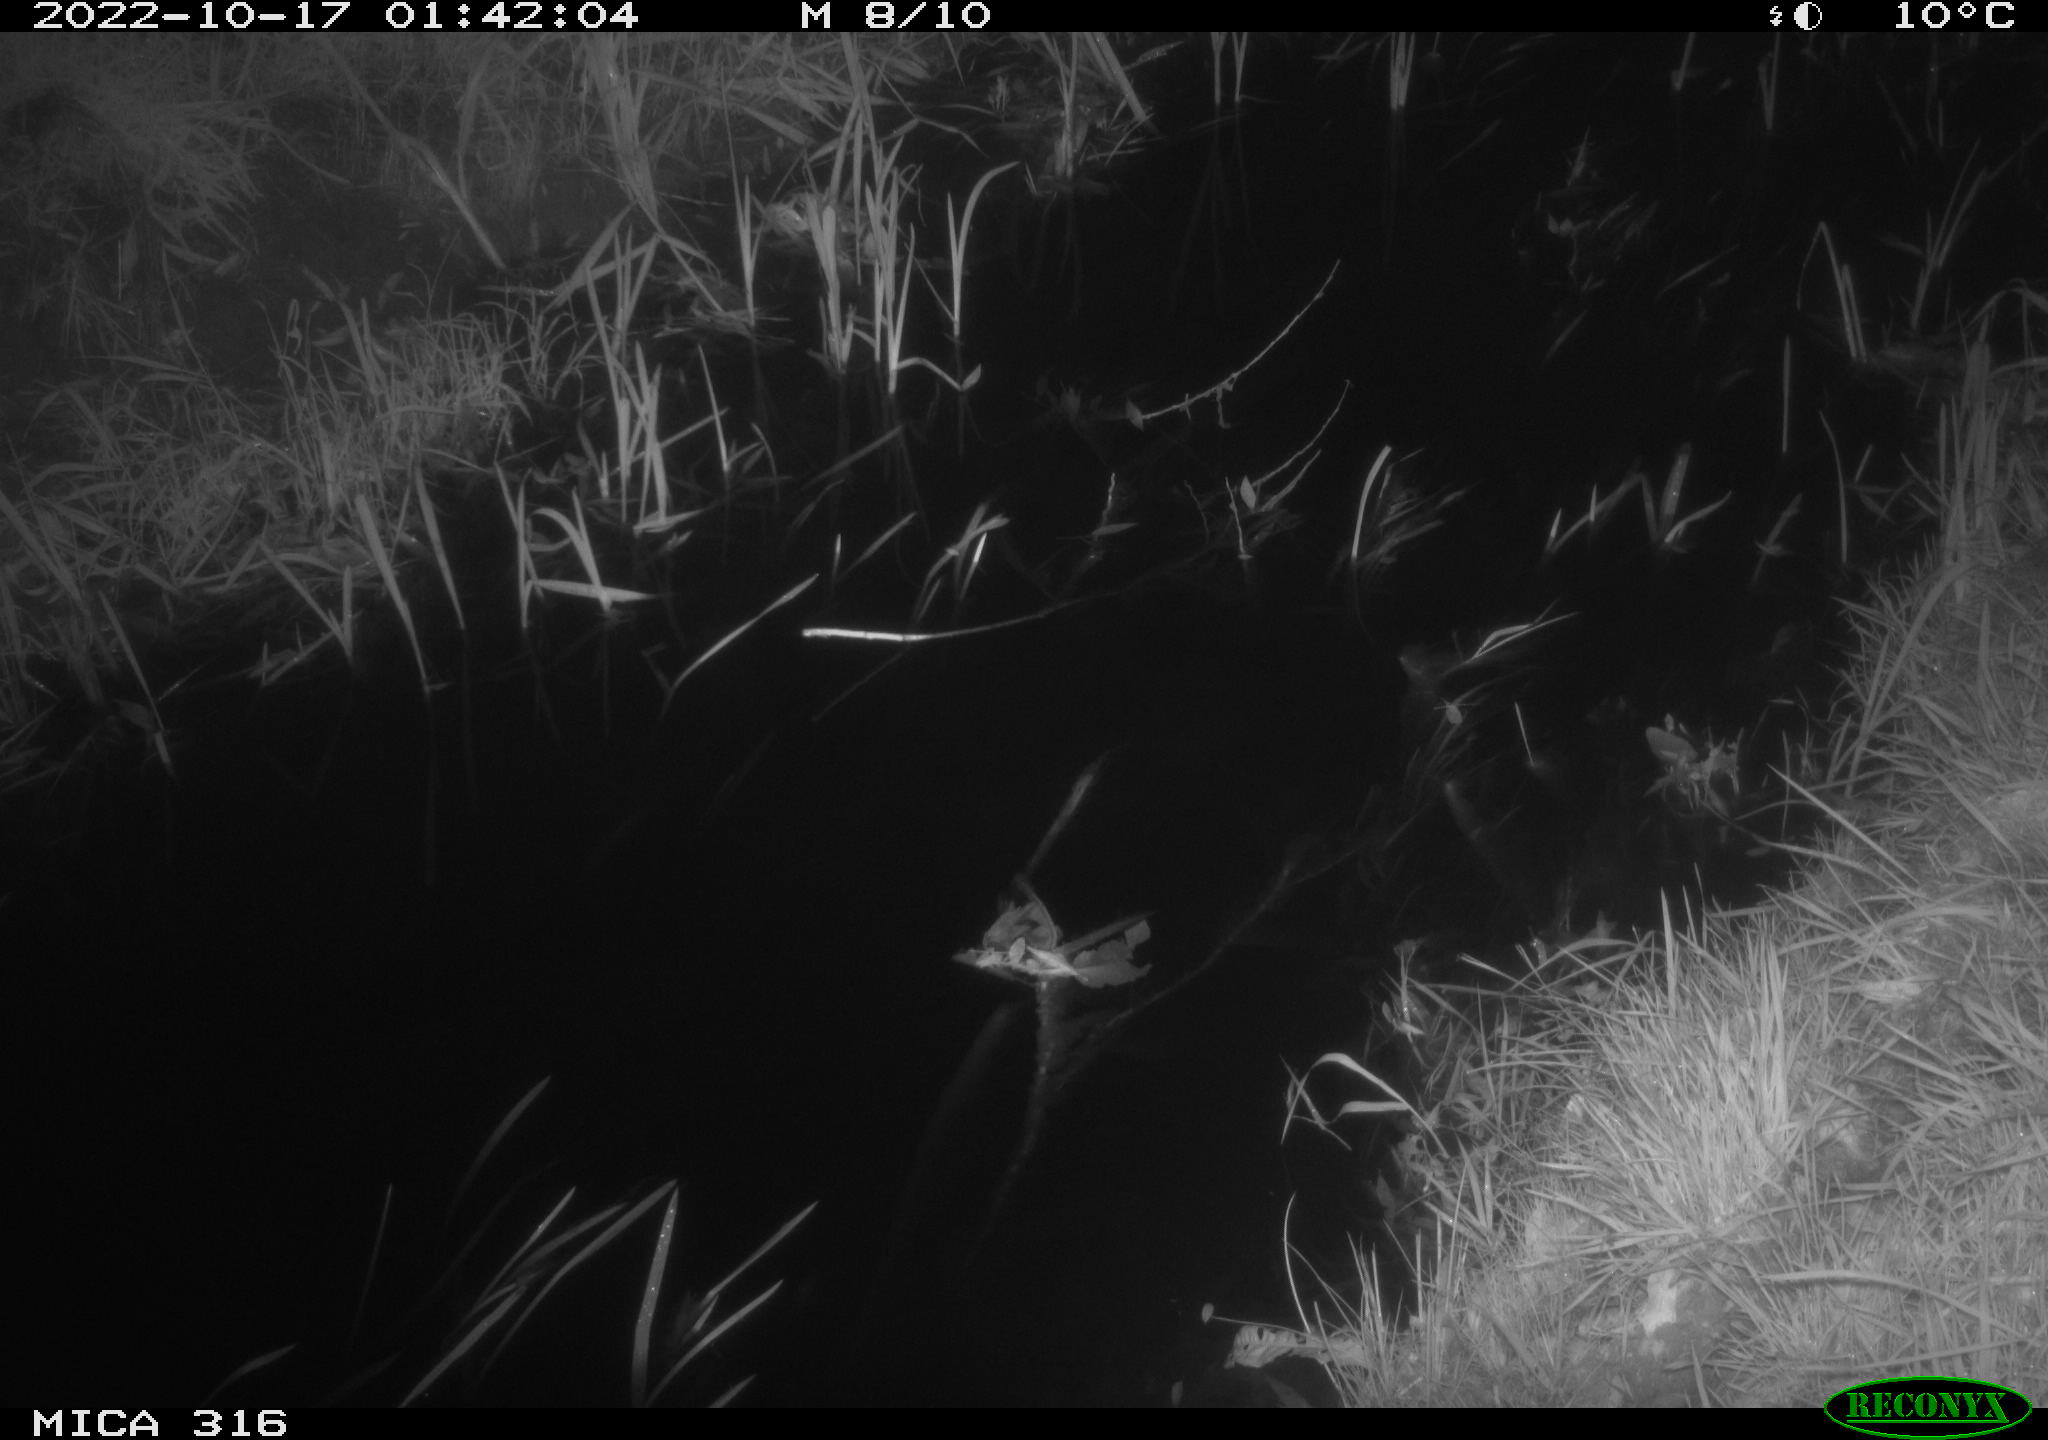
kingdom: Animalia
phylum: Chordata
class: Mammalia
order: Carnivora
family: Canidae
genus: Vulpes
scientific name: Vulpes vulpes
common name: Red fox
